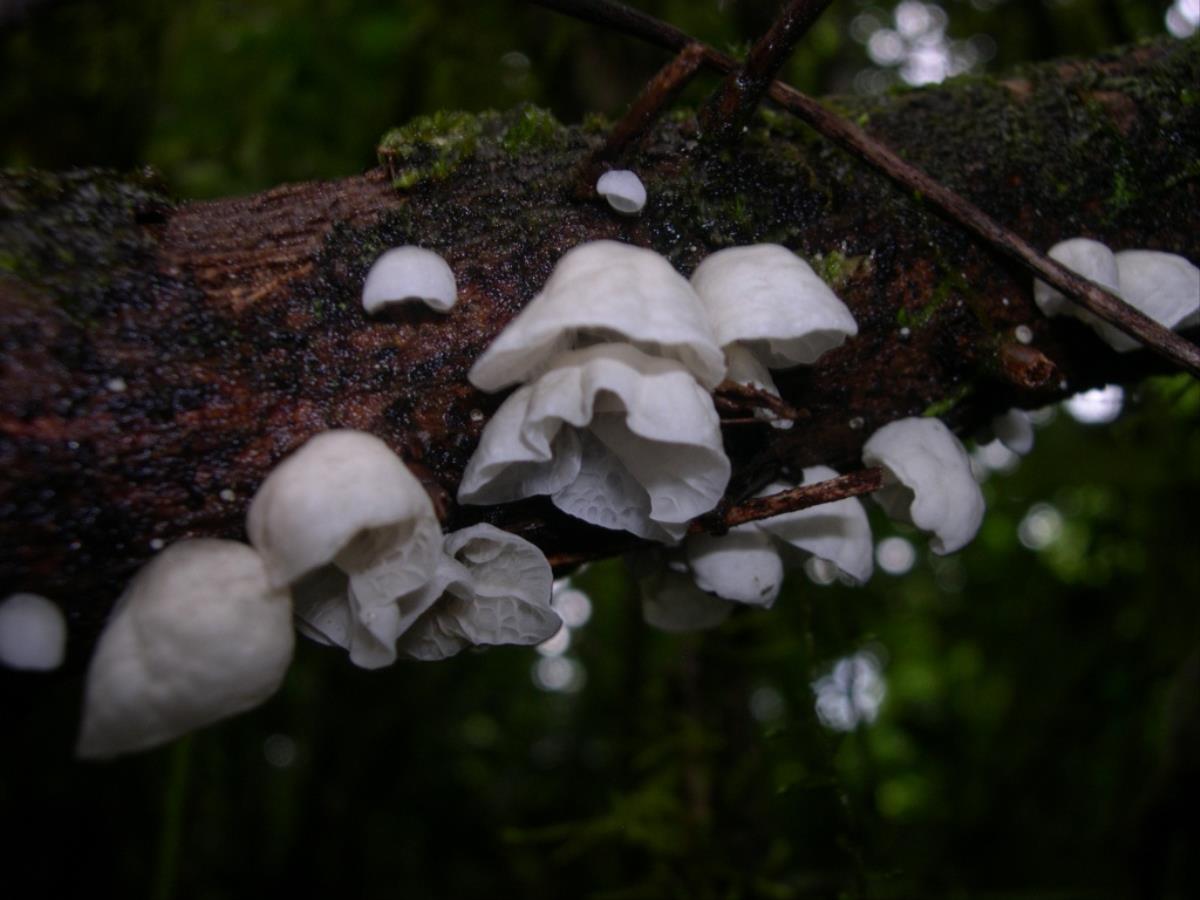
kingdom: Fungi
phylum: Basidiomycota
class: Agaricomycetes
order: Agaricales
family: Marasmiaceae
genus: Campanella
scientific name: Campanella candida
